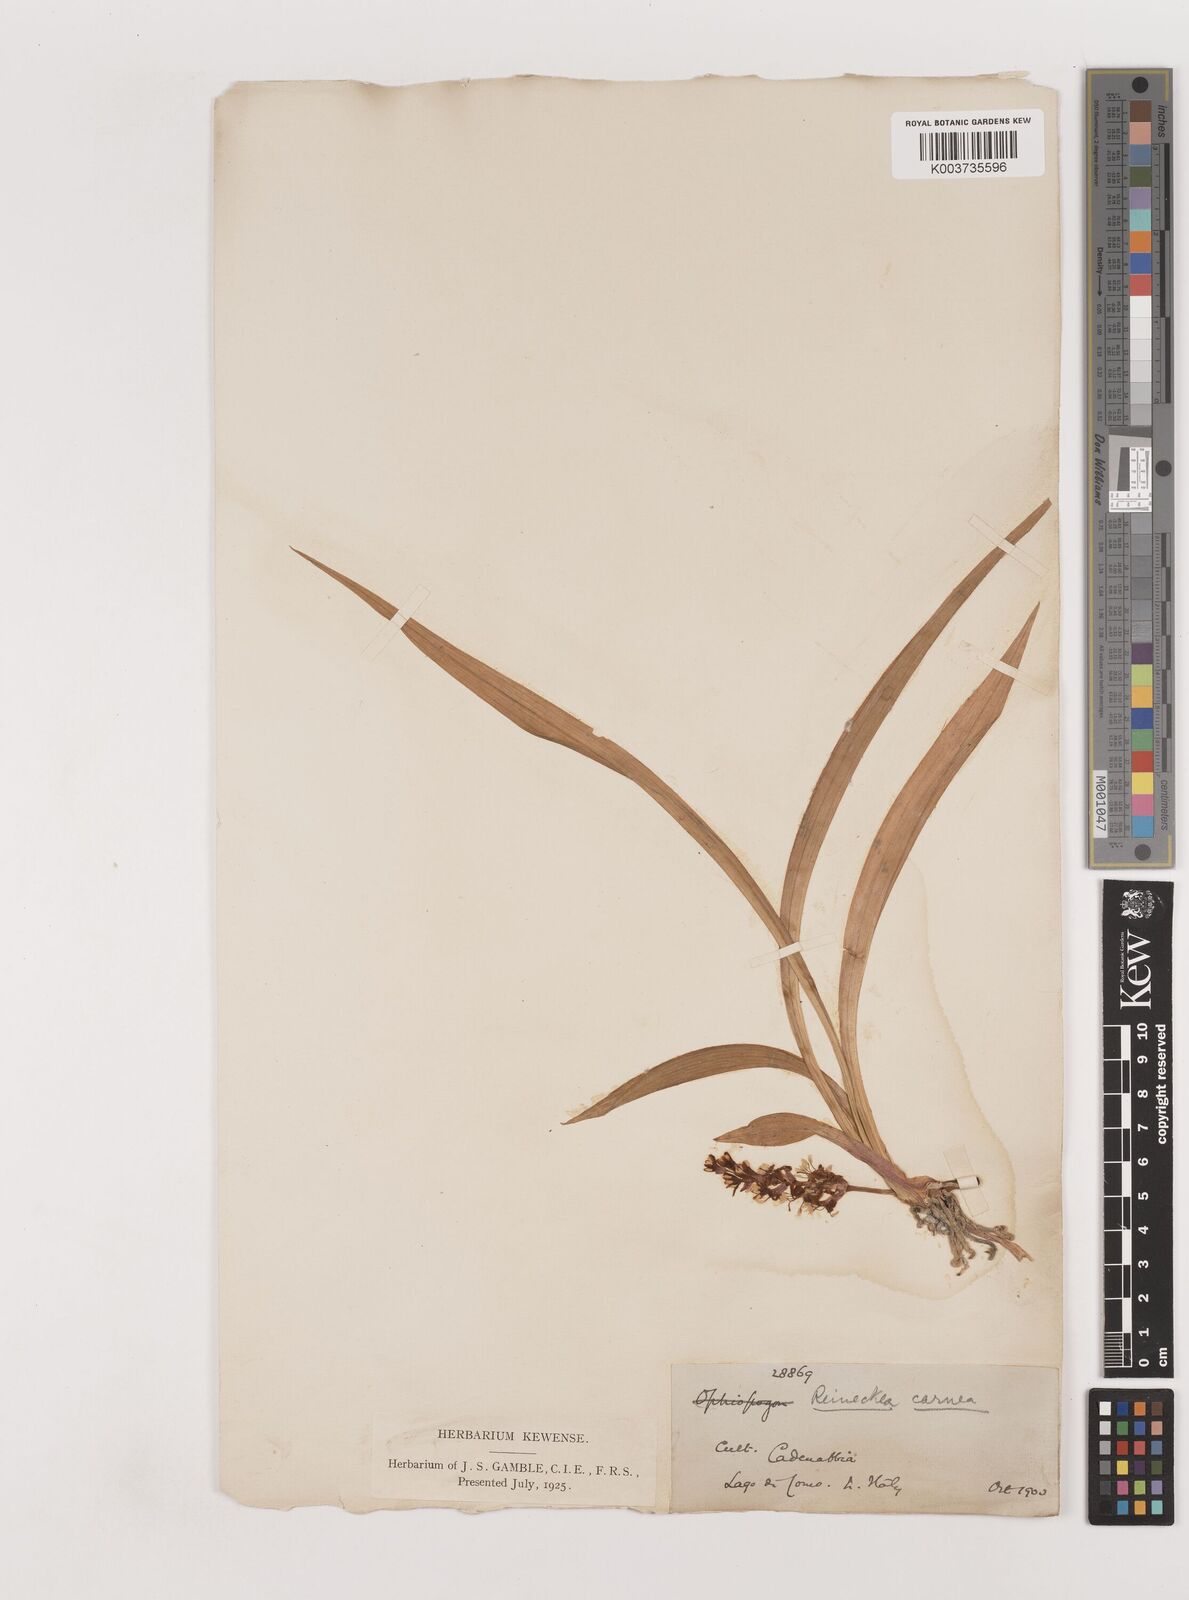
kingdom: Plantae
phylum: Tracheophyta
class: Liliopsida
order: Asparagales
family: Asparagaceae
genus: Reineckea
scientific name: Reineckea carnea
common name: Reineckea
